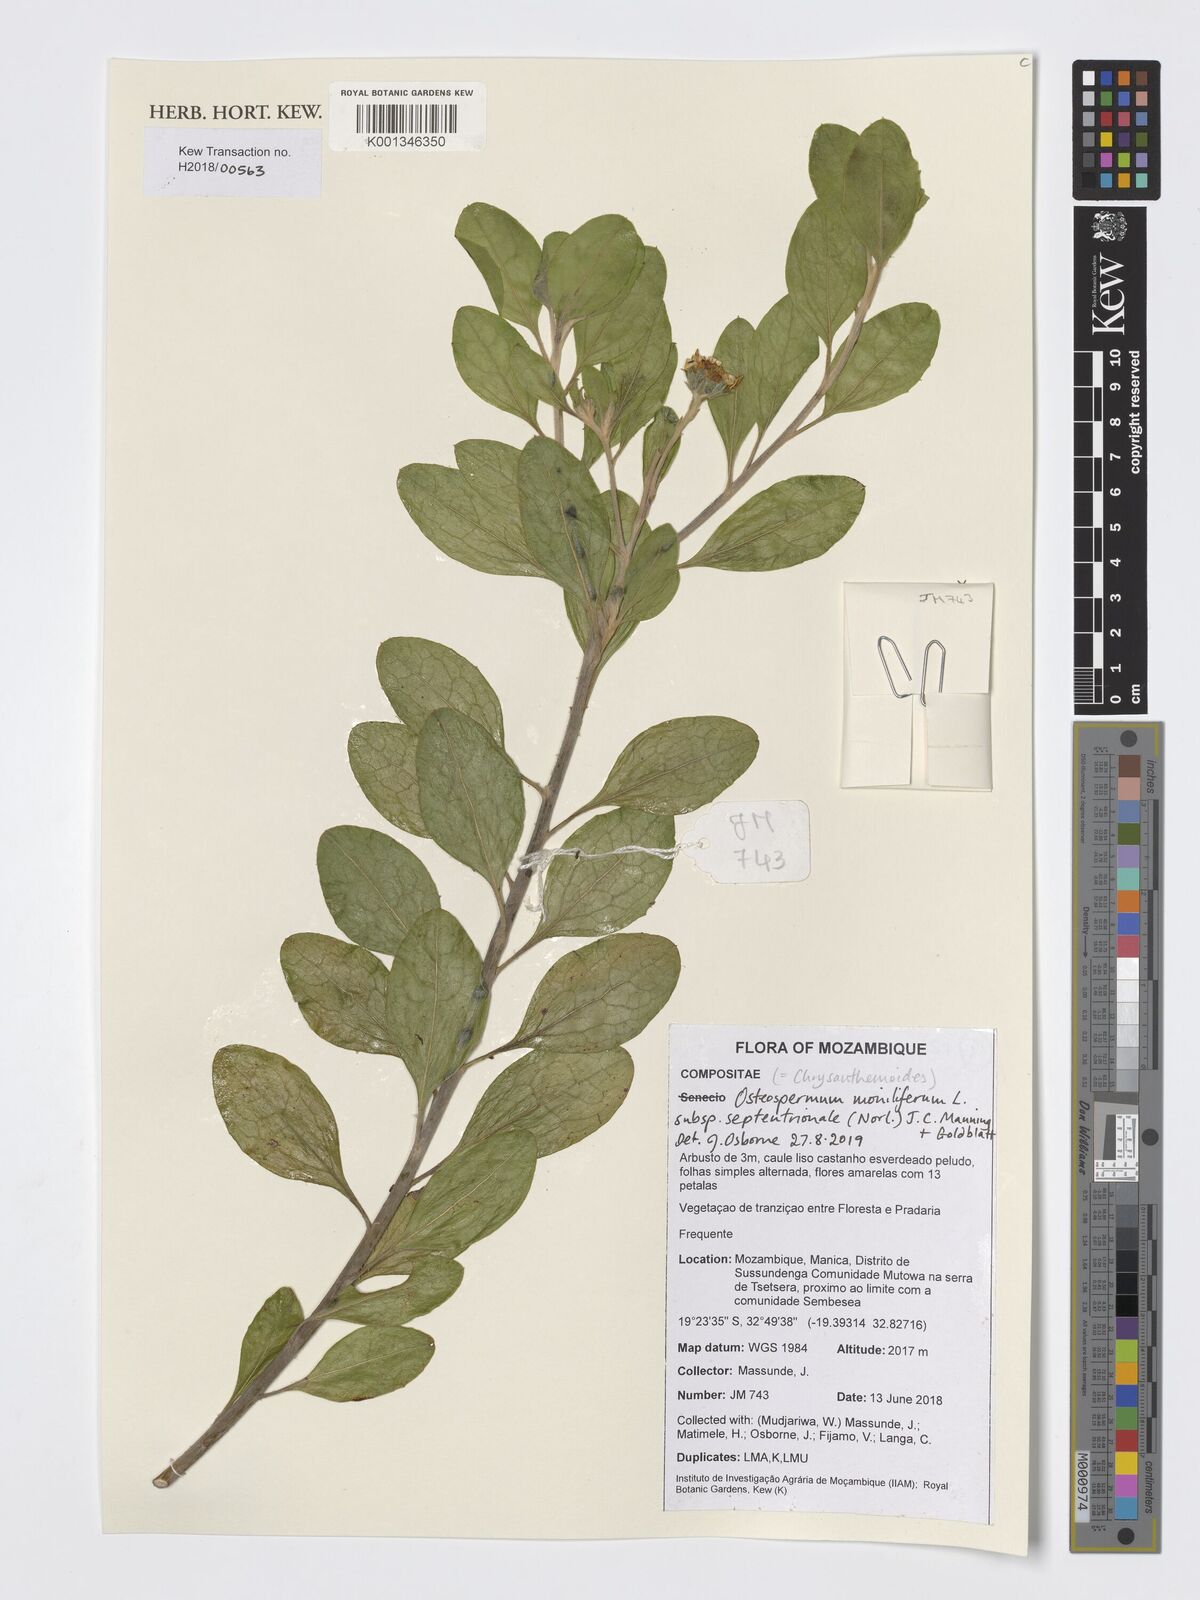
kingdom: Plantae
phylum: Tracheophyta
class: Magnoliopsida
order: Asterales
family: Asteraceae
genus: Osteospermum
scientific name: Osteospermum moniliferum
